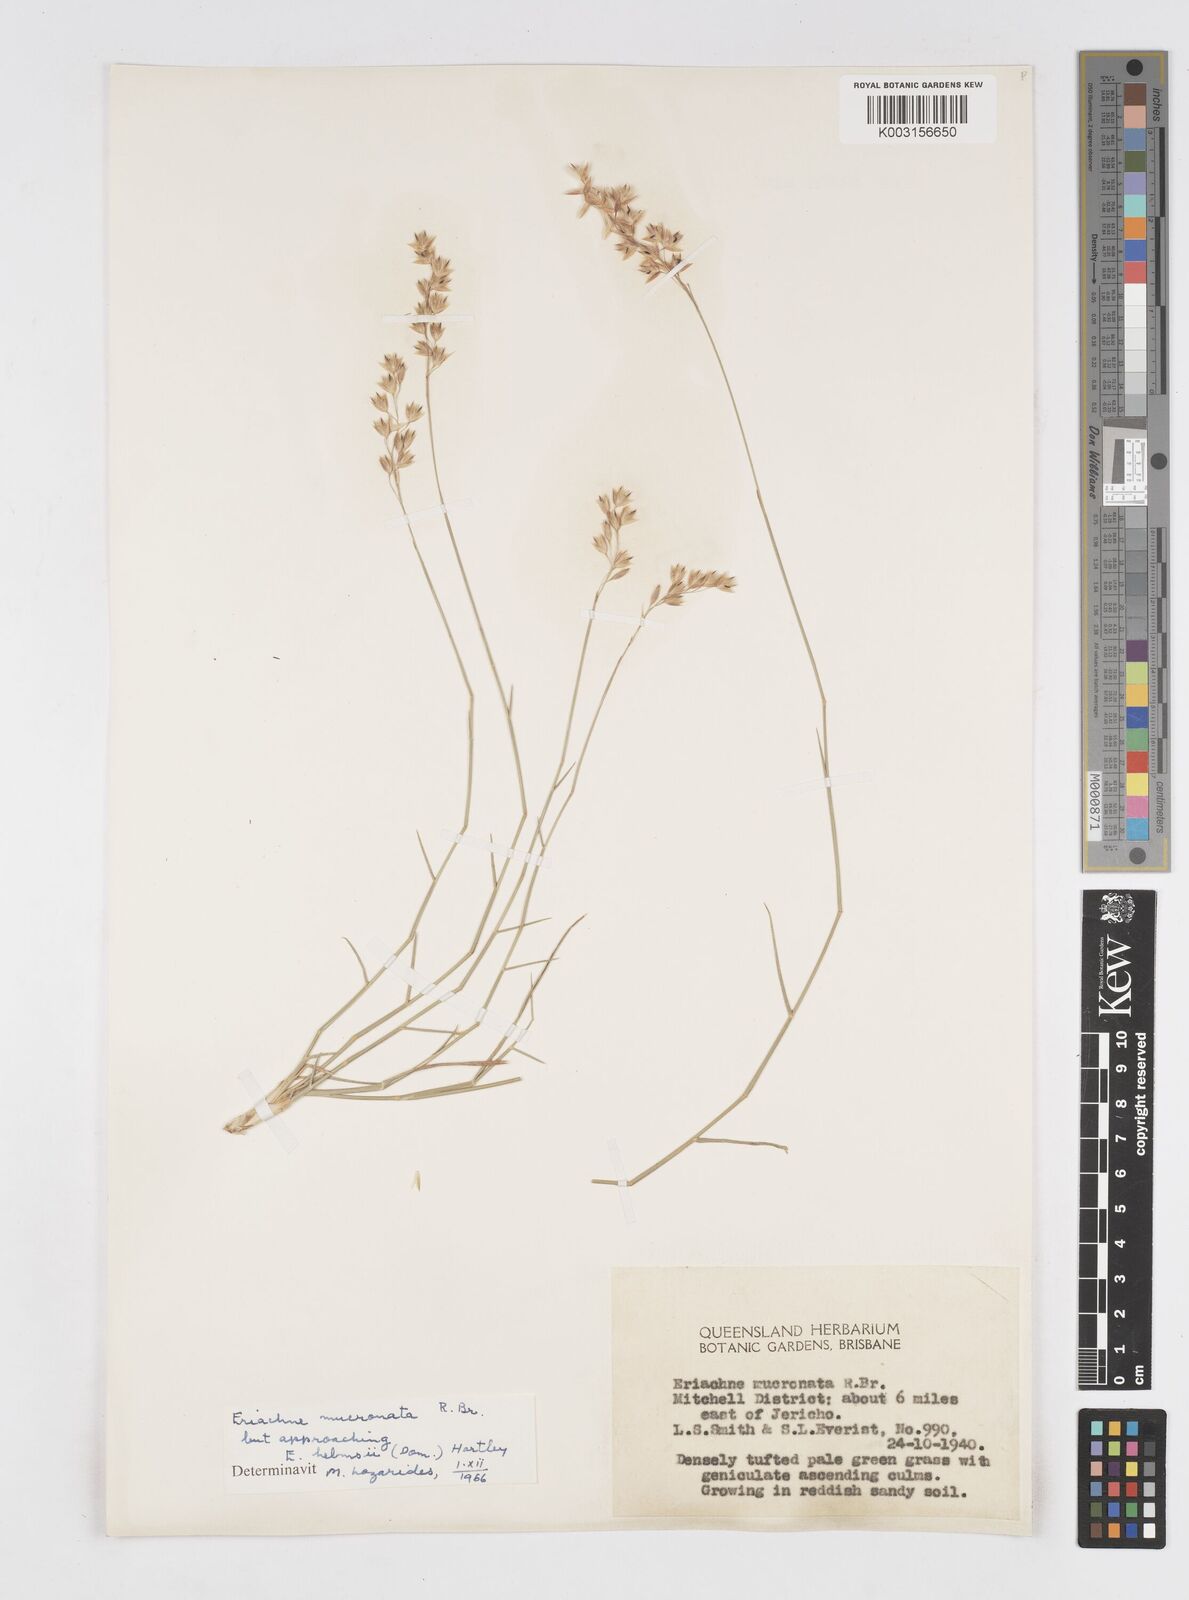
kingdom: Plantae
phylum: Tracheophyta
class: Liliopsida
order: Poales
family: Poaceae
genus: Eriachne
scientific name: Eriachne helmsii
